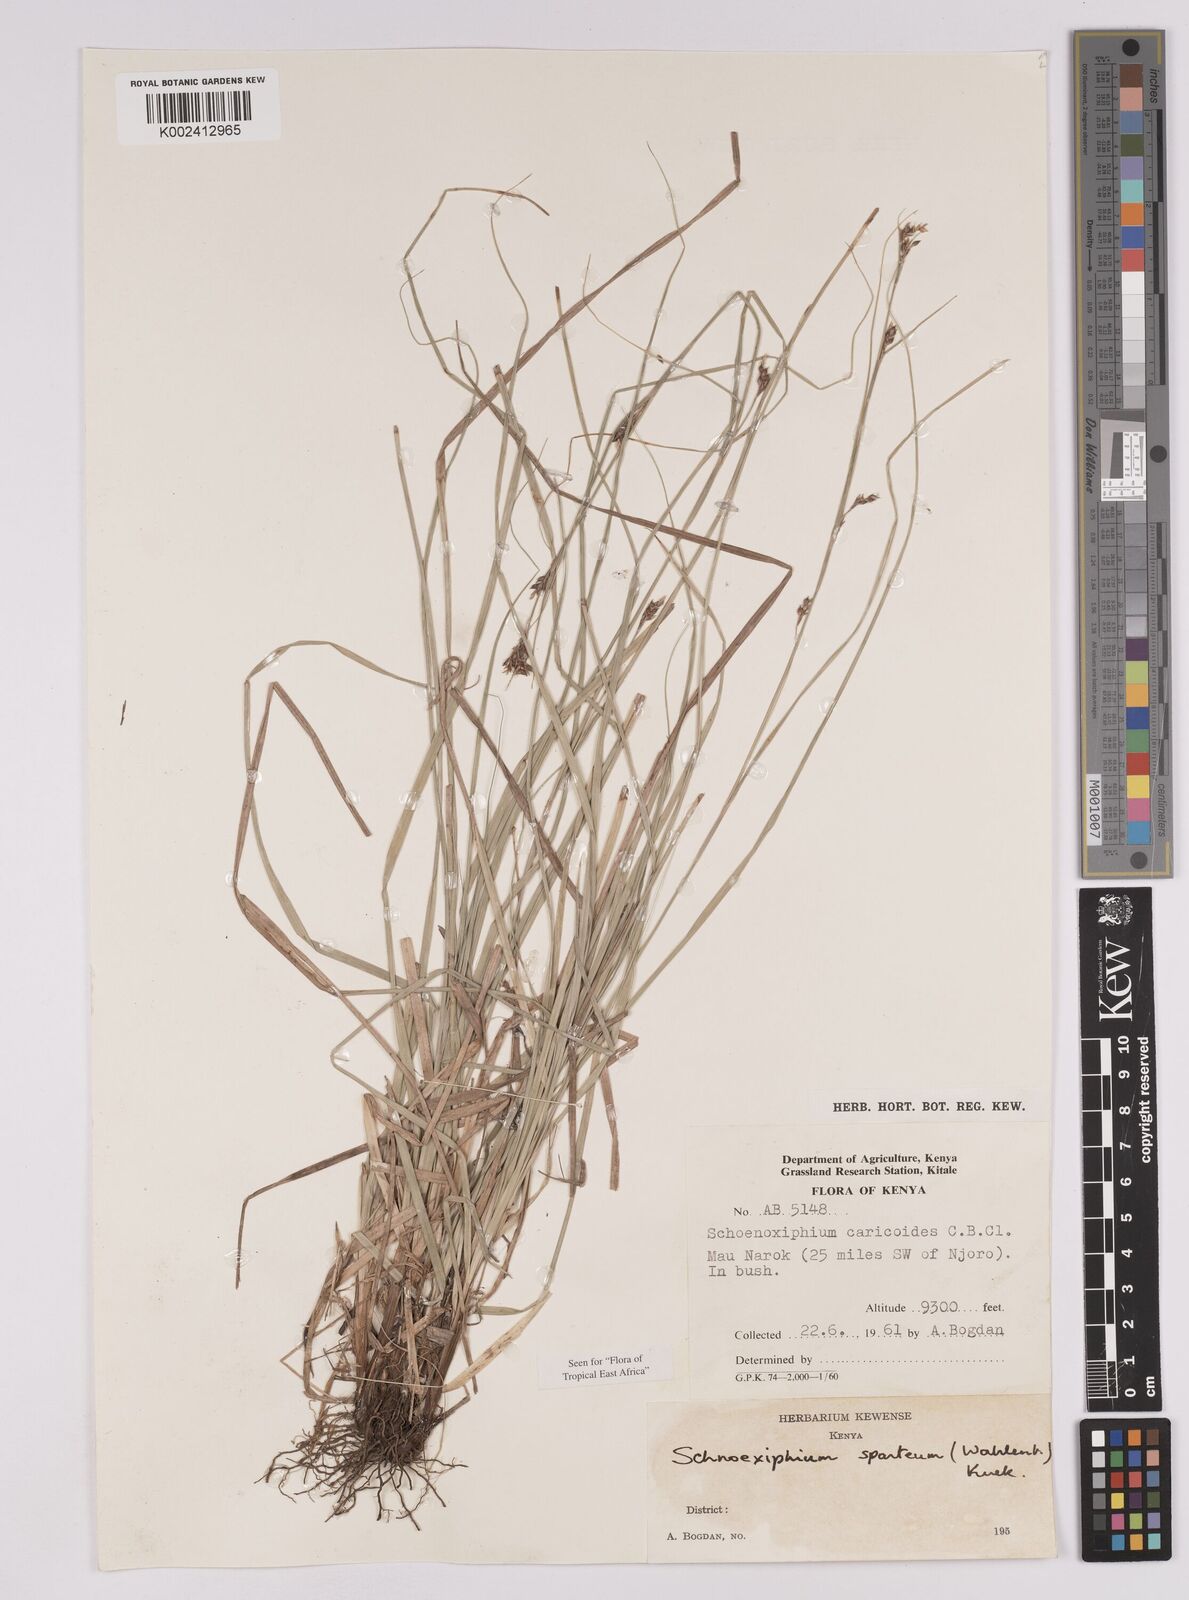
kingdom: Plantae
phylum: Tracheophyta
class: Liliopsida
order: Poales
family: Cyperaceae
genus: Carex
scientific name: Carex schimperiana
